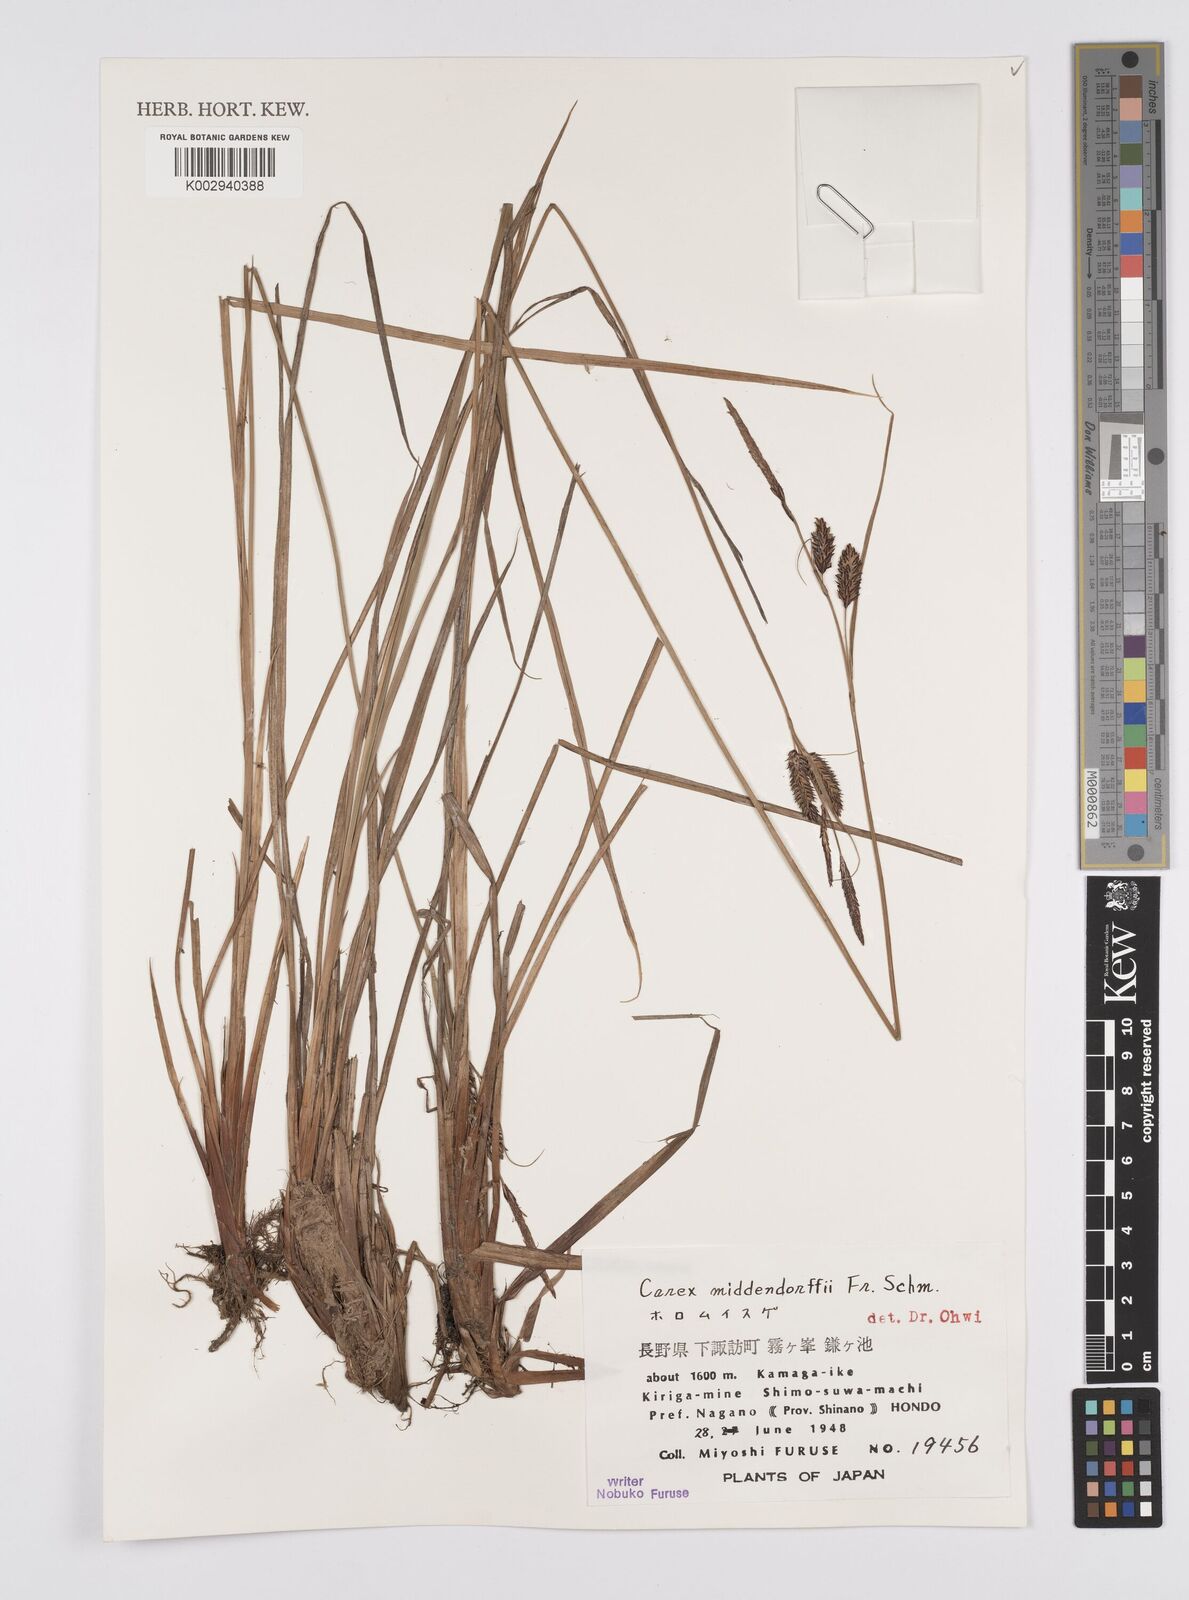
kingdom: Plantae
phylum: Tracheophyta
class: Liliopsida
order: Poales
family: Cyperaceae
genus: Carex
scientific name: Carex middendorffii
